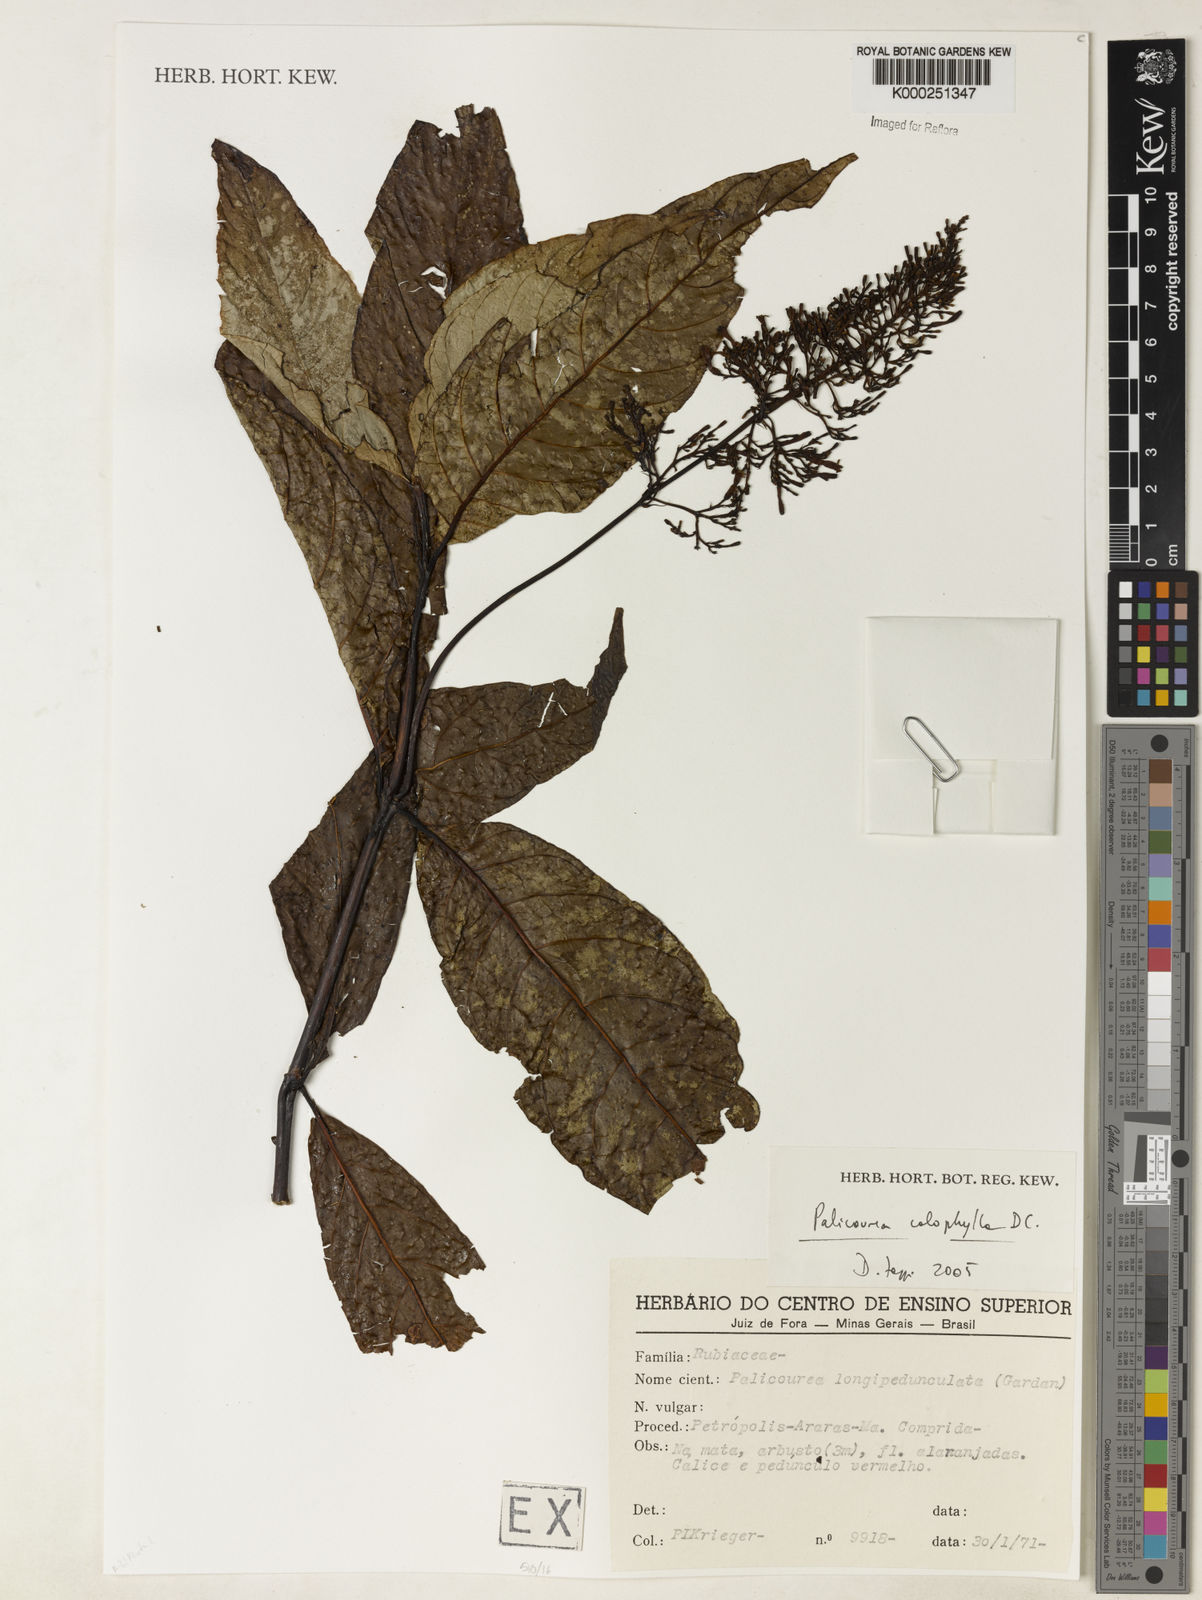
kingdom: Plantae
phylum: Tracheophyta
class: Magnoliopsida
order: Gentianales
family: Rubiaceae
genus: Palicourea
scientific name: Palicourea
